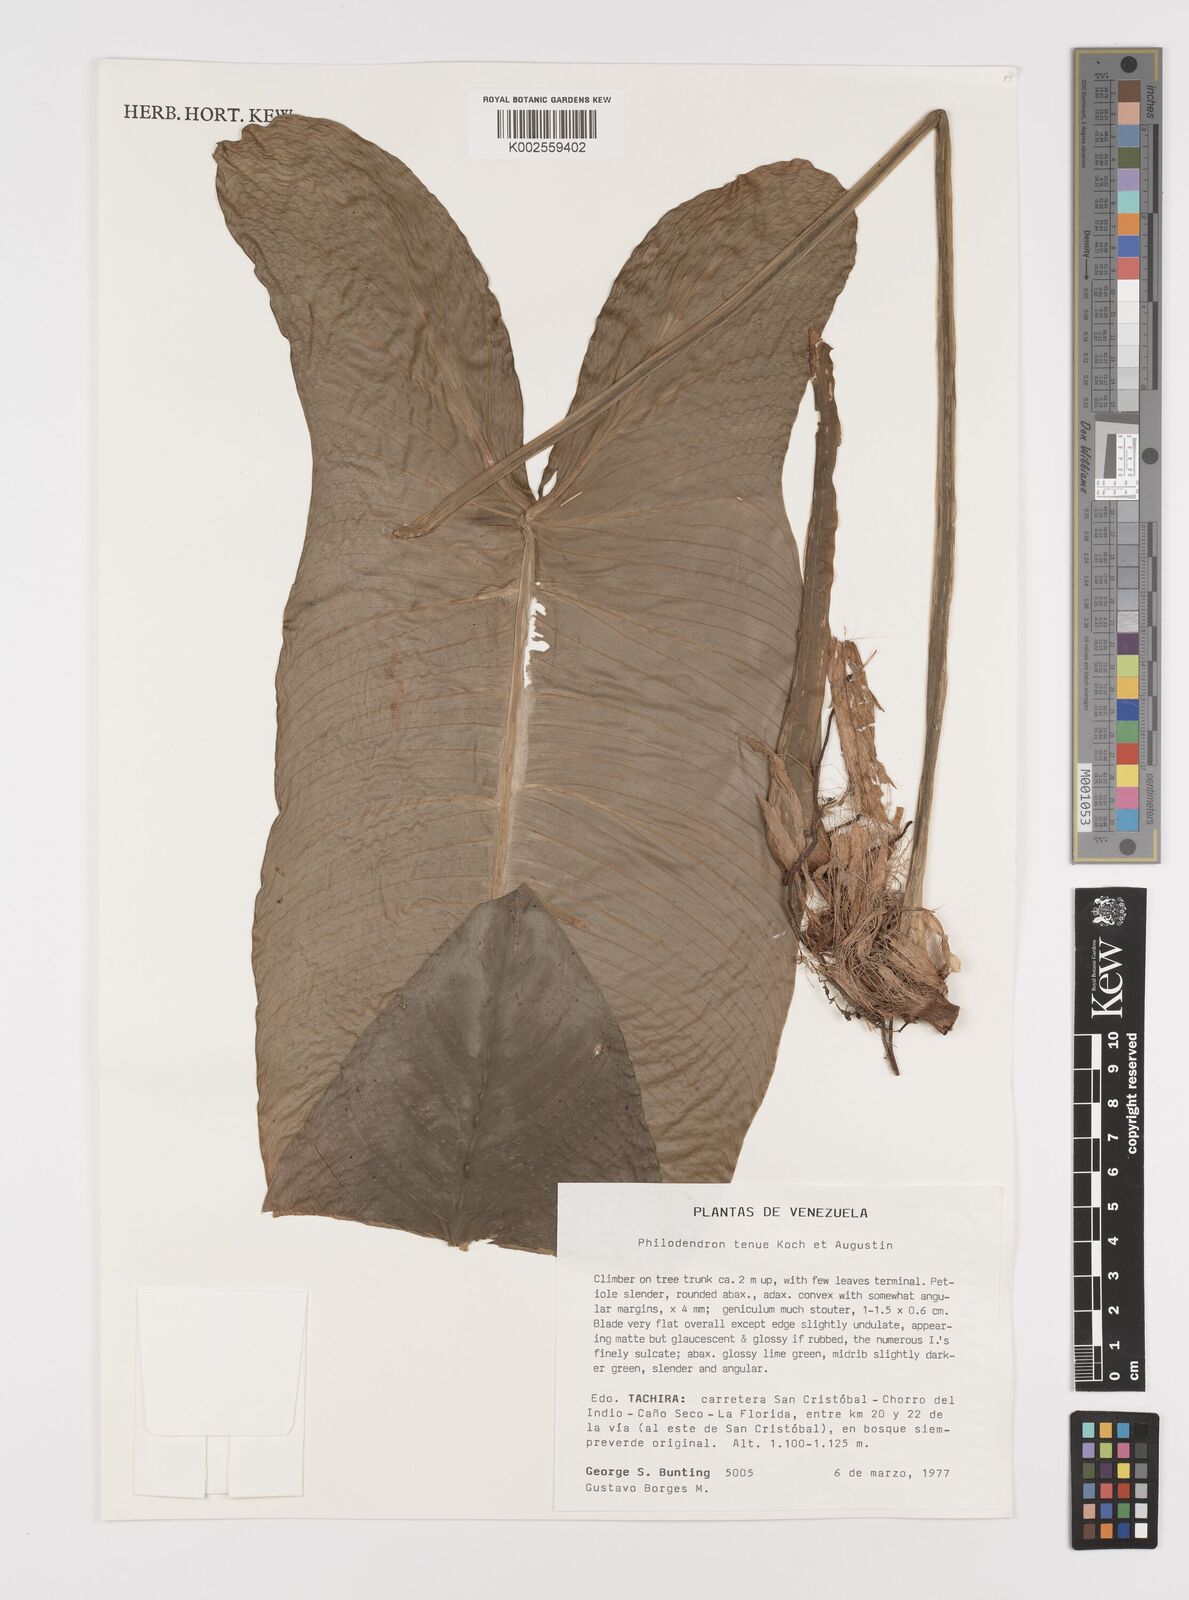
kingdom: Plantae
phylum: Tracheophyta
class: Liliopsida
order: Alismatales
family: Araceae
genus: Philodendron
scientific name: Philodendron tenue
